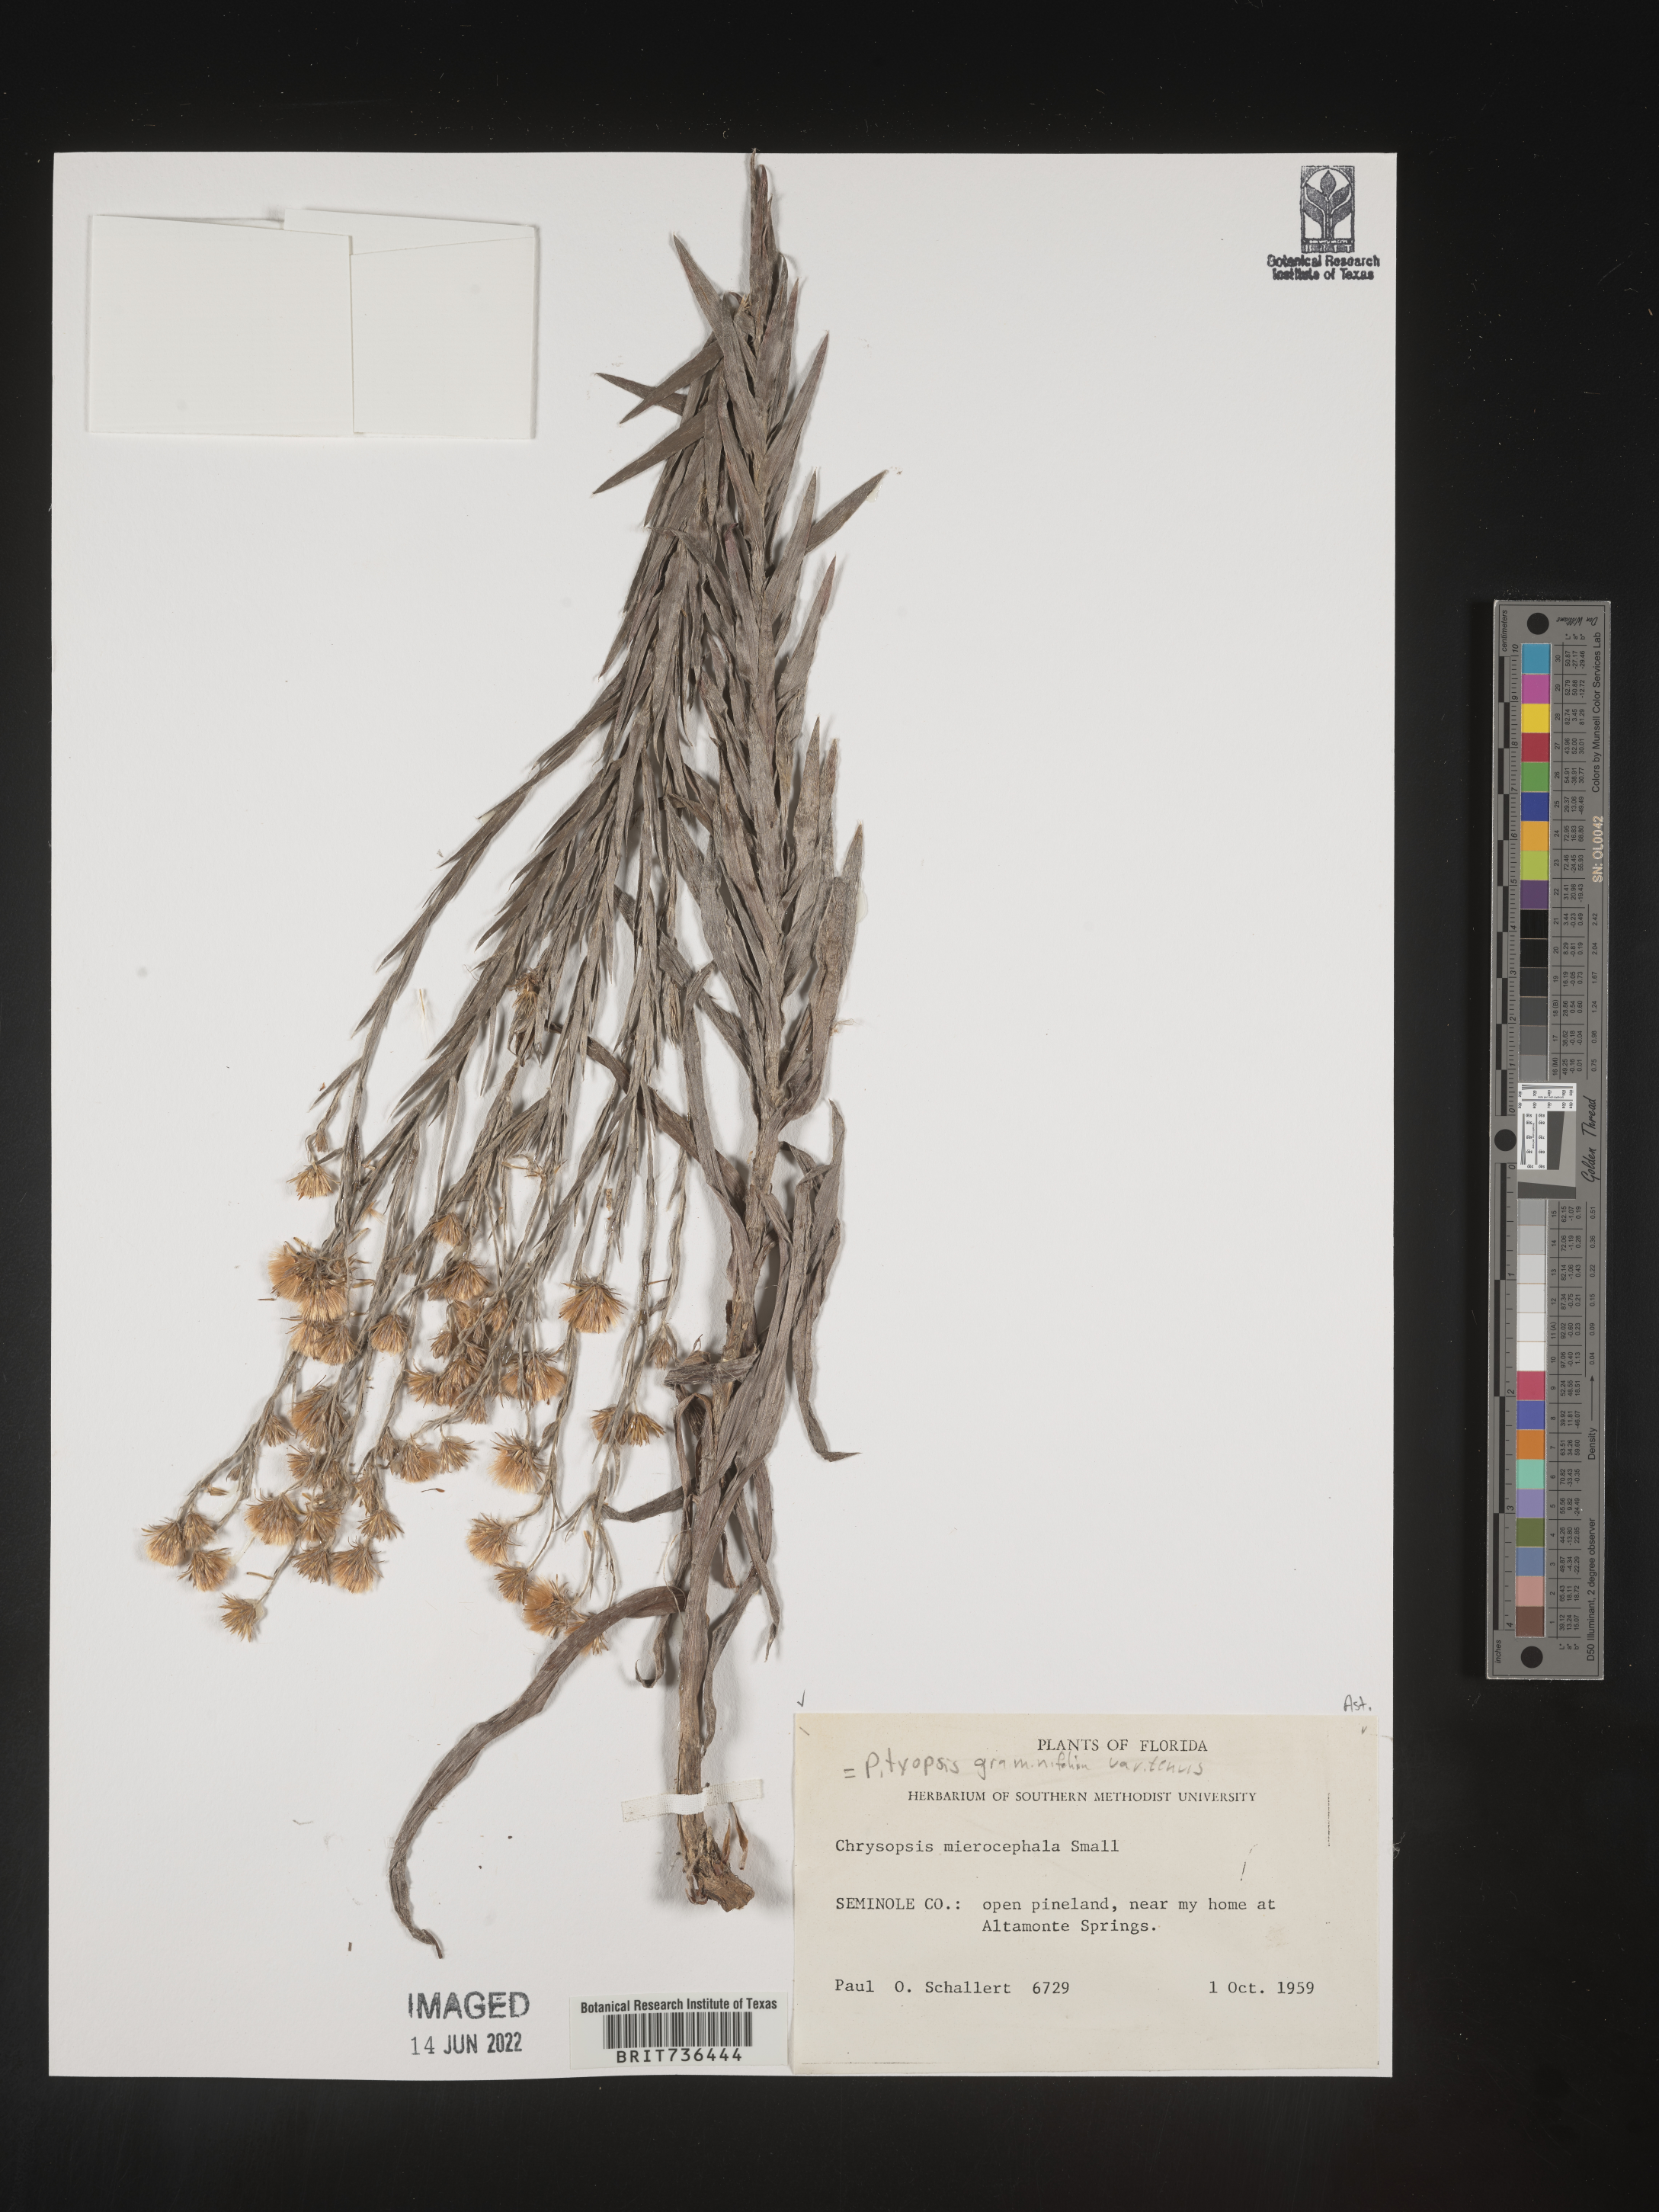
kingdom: Plantae
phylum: Tracheophyta
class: Magnoliopsida
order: Asterales
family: Asteraceae
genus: Pityopsis
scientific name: Pityopsis tracyi
